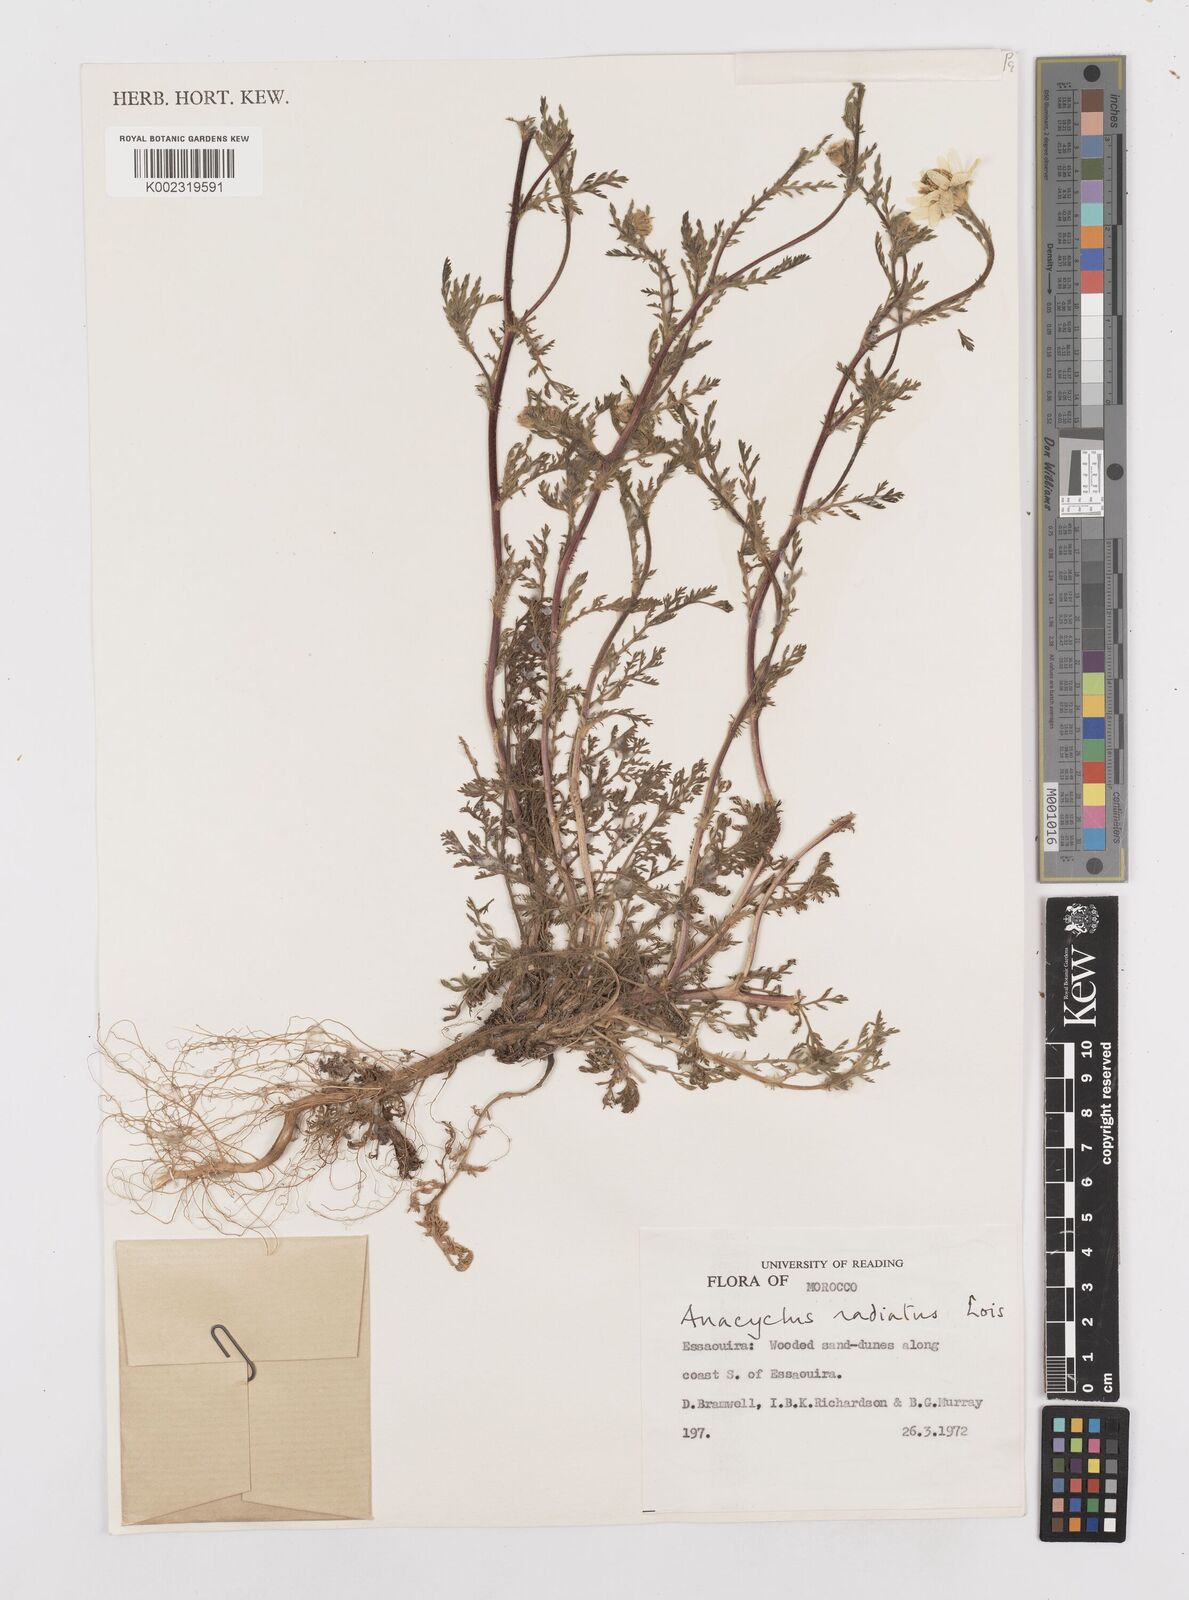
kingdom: Plantae
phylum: Tracheophyta
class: Magnoliopsida
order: Asterales
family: Asteraceae
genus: Anacyclus
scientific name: Anacyclus radiatus
